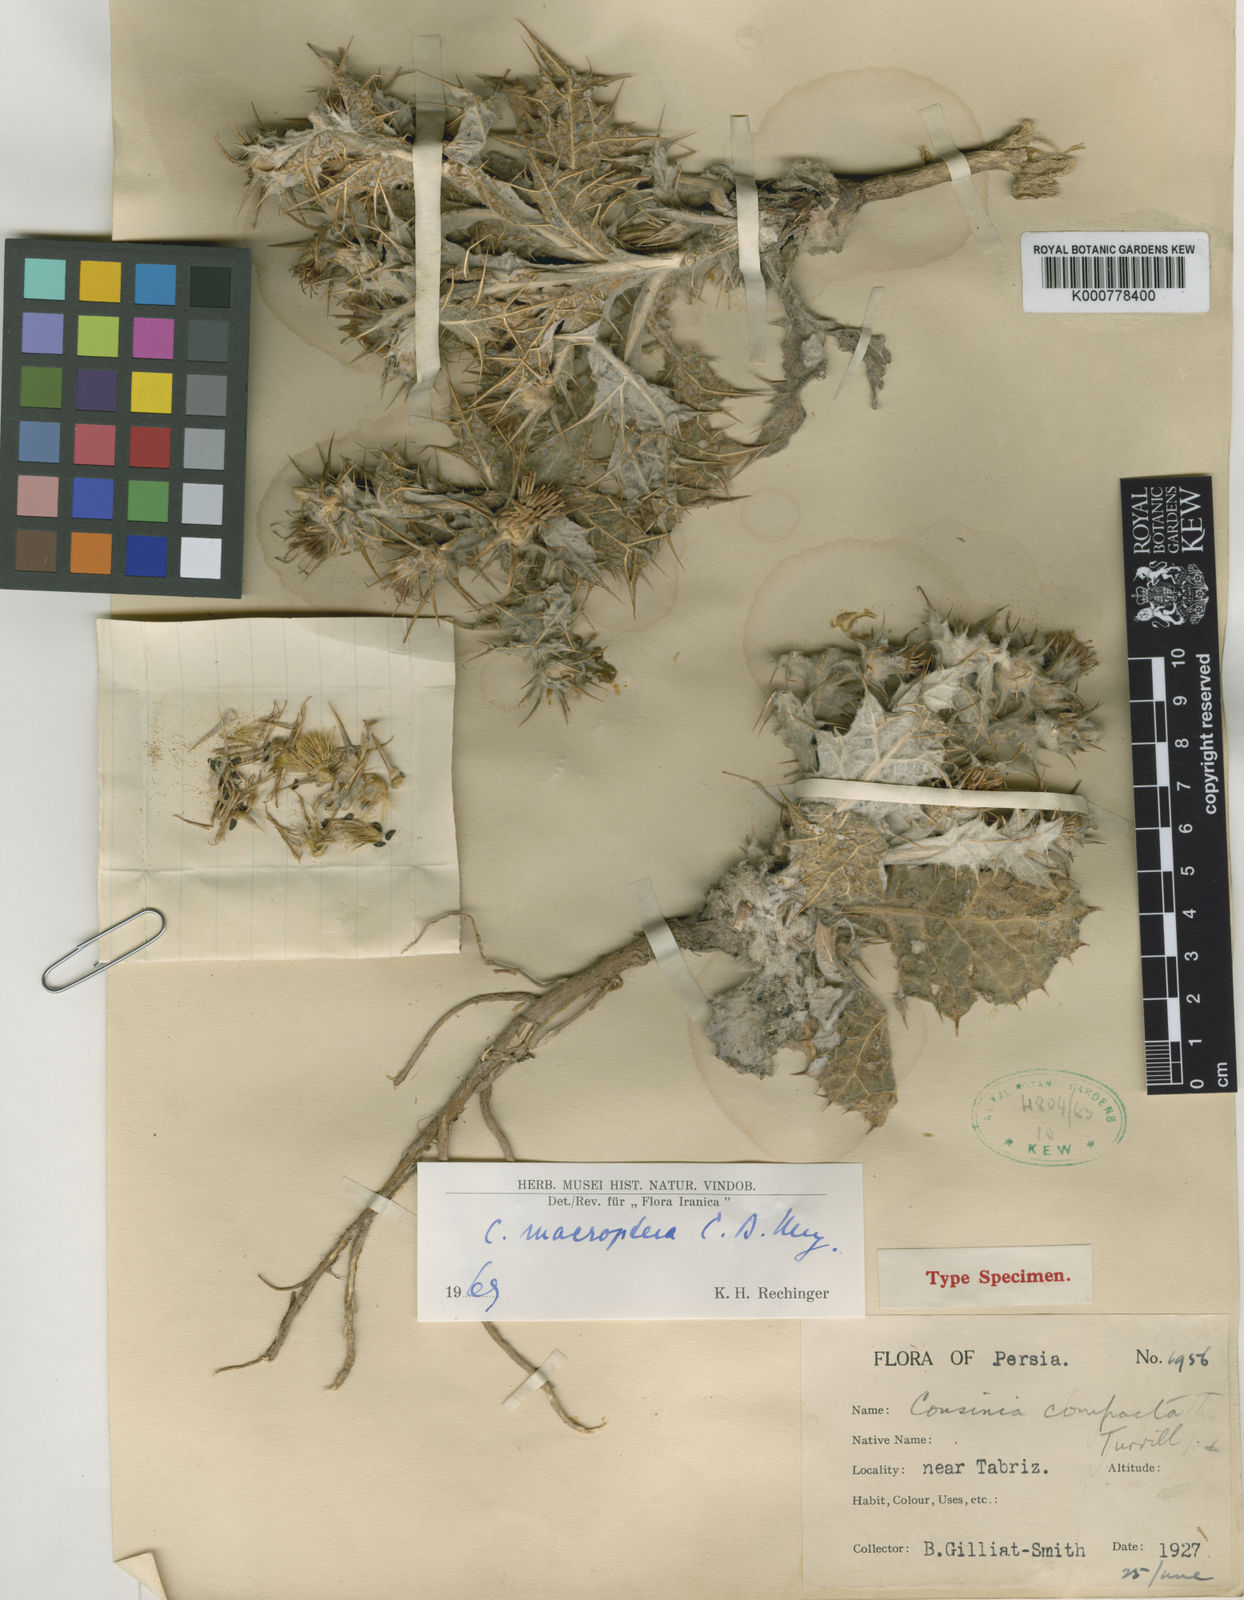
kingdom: Plantae
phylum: Tracheophyta
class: Magnoliopsida
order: Asterales
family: Asteraceae
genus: Cousinia
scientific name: Cousinia
